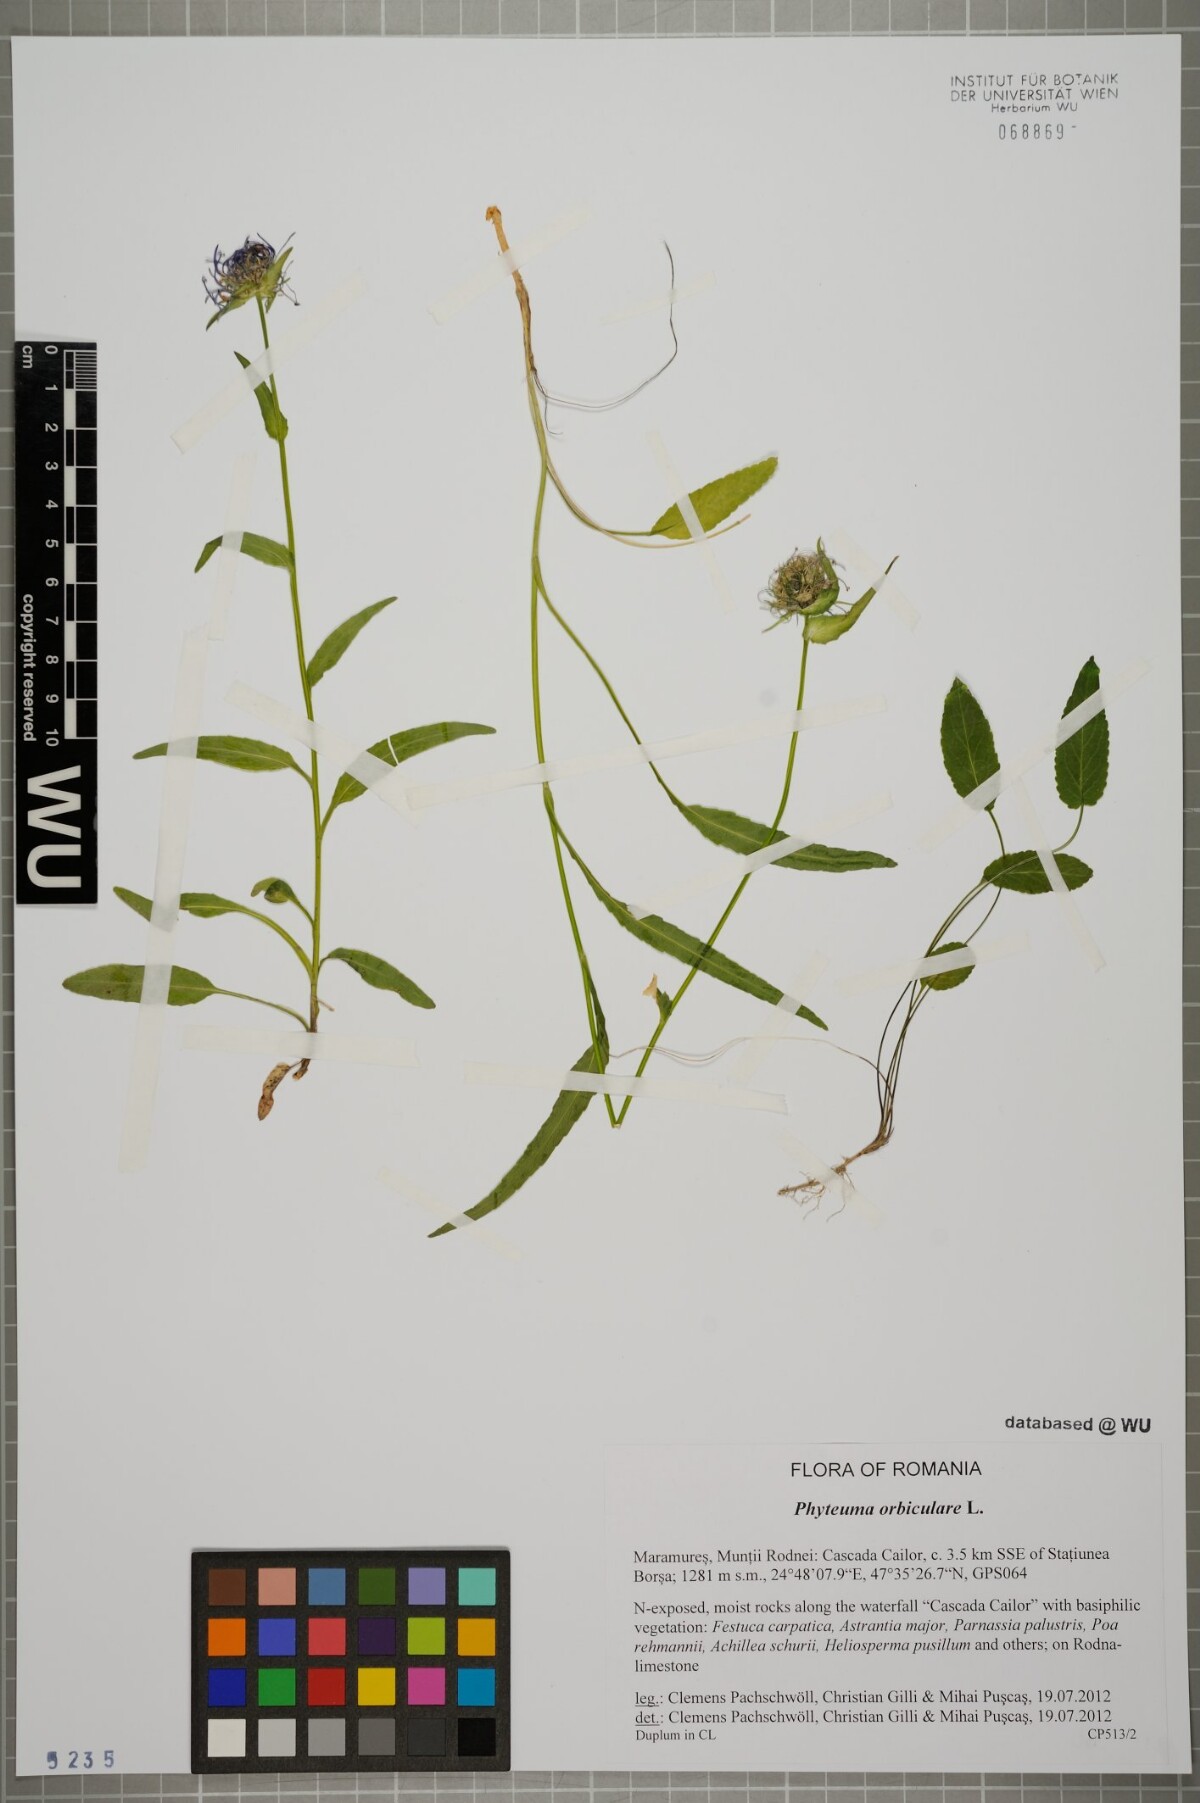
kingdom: Plantae
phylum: Tracheophyta
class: Magnoliopsida
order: Asterales
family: Campanulaceae
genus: Phyteuma
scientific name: Phyteuma orbiculare
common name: Round-headed rampion
